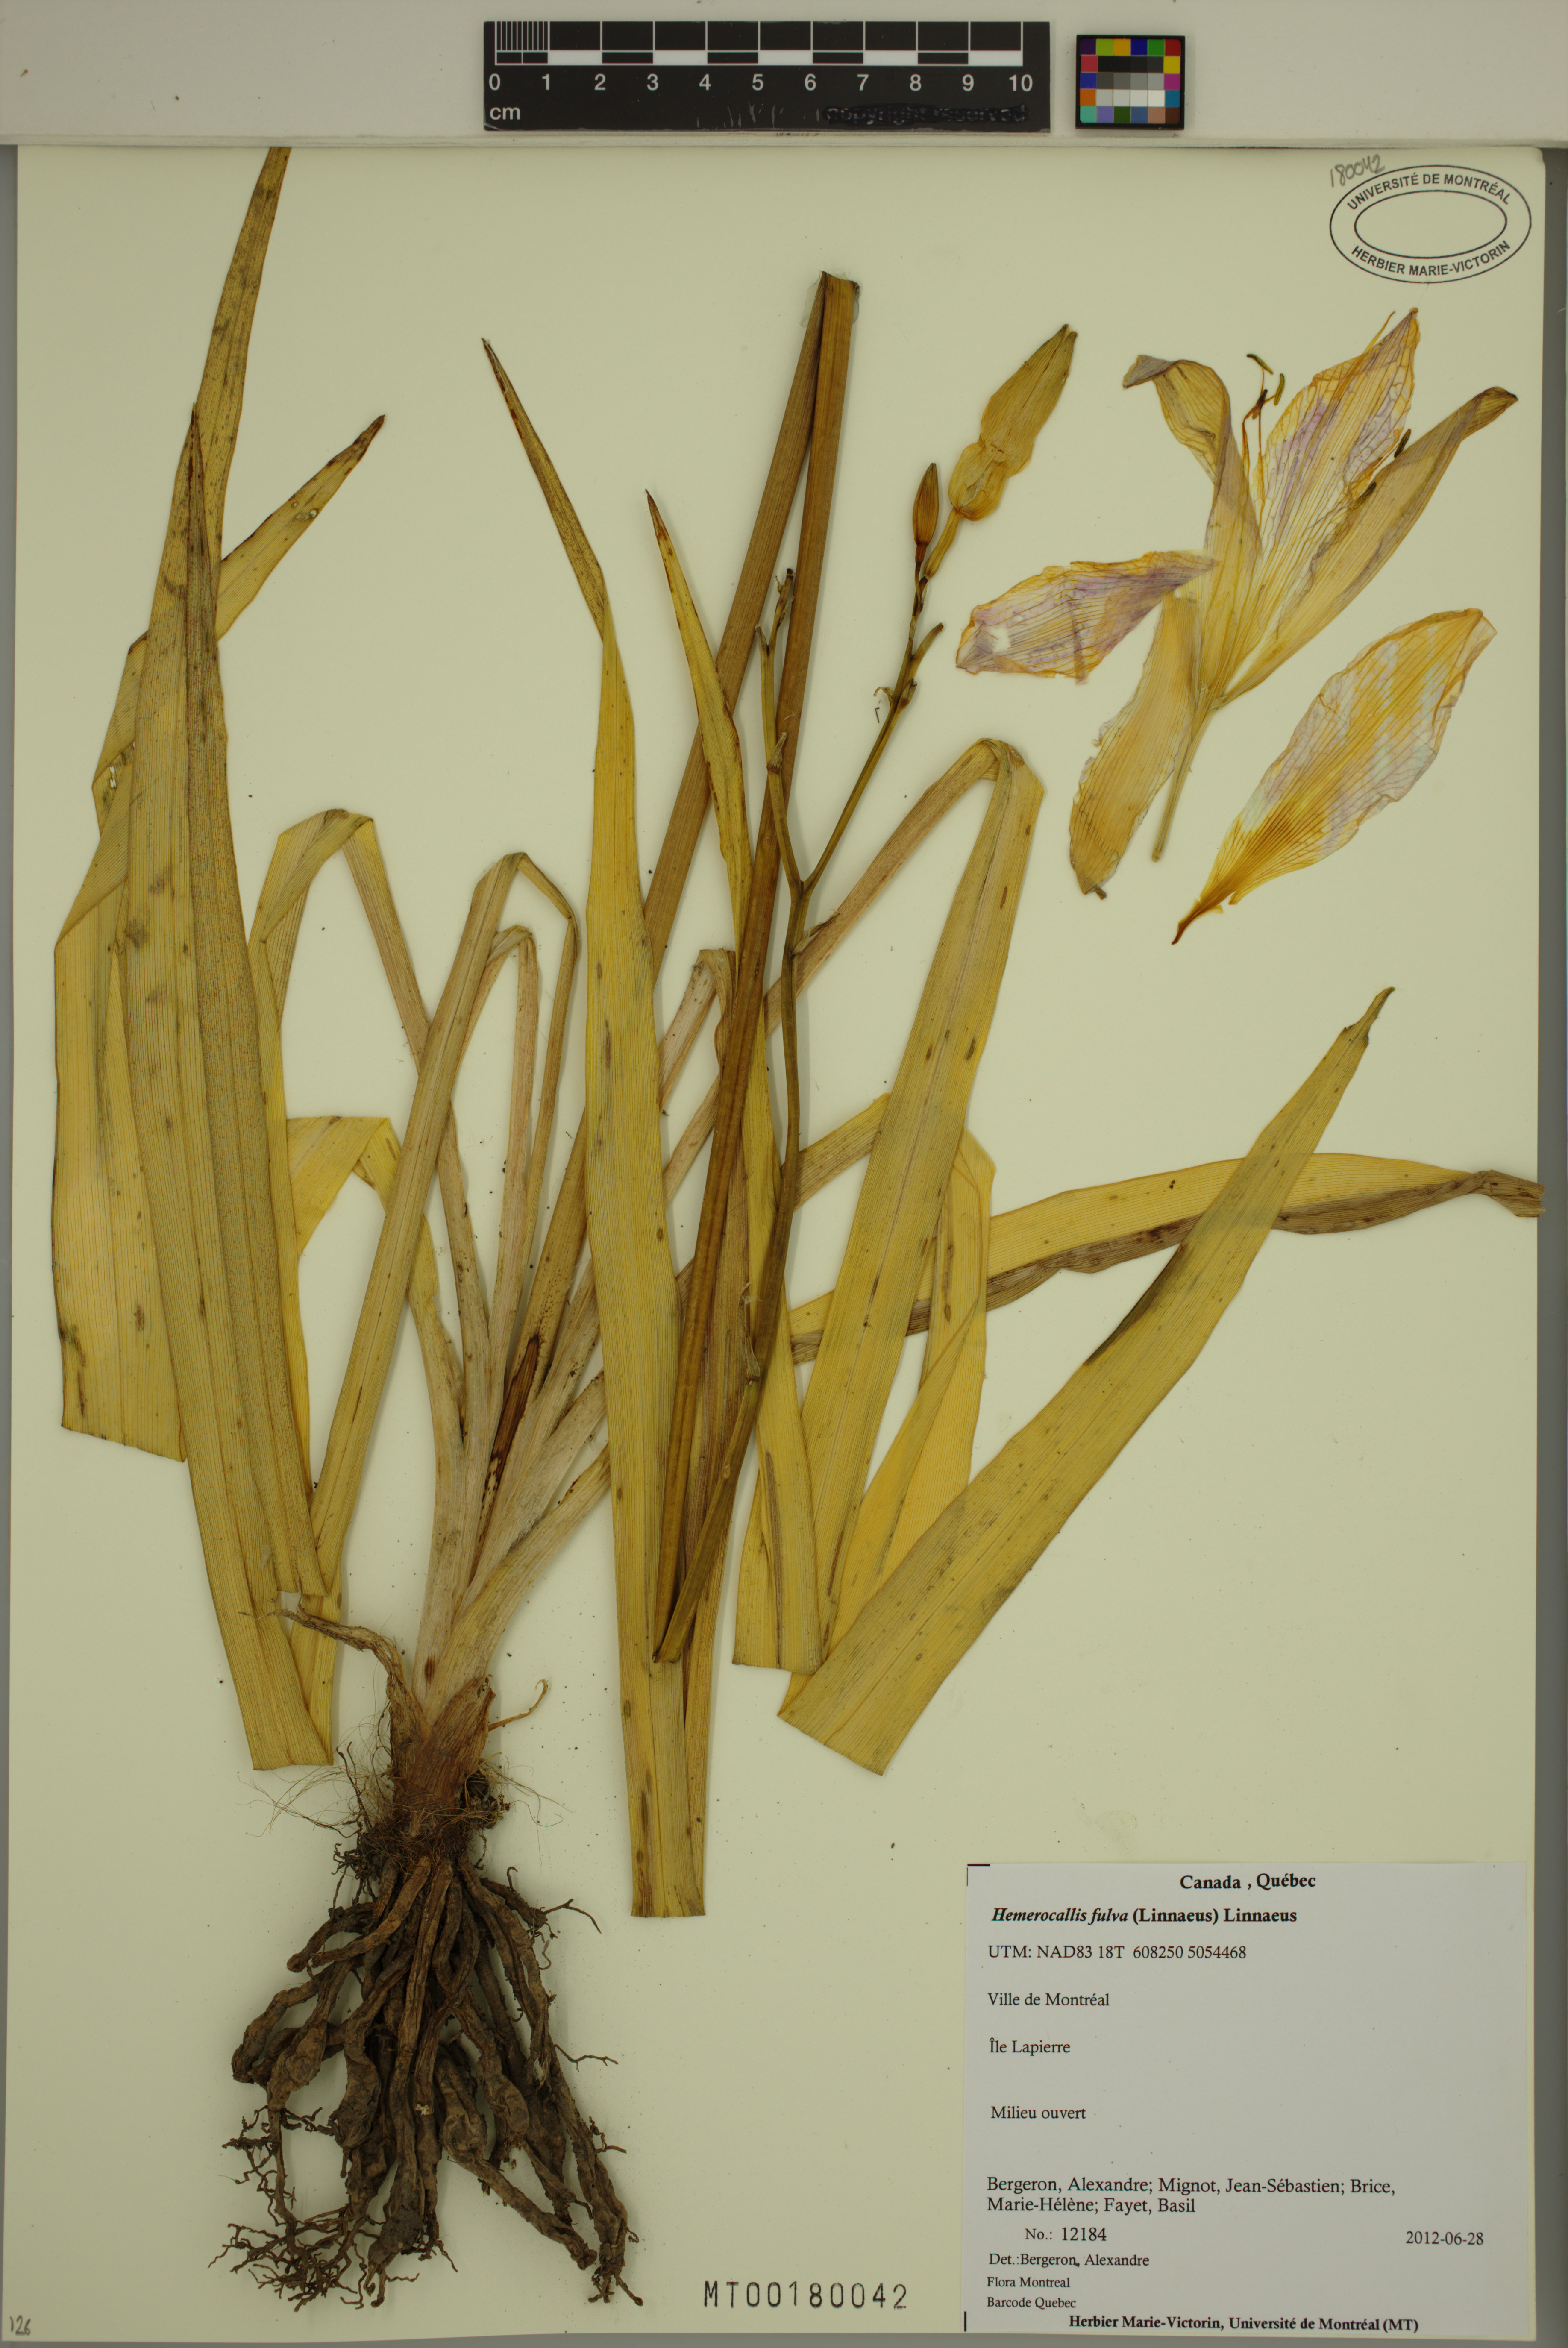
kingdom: Plantae
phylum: Tracheophyta
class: Liliopsida
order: Asparagales
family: Asphodelaceae
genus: Hemerocallis
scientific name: Hemerocallis fulva
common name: Orange day-lily
